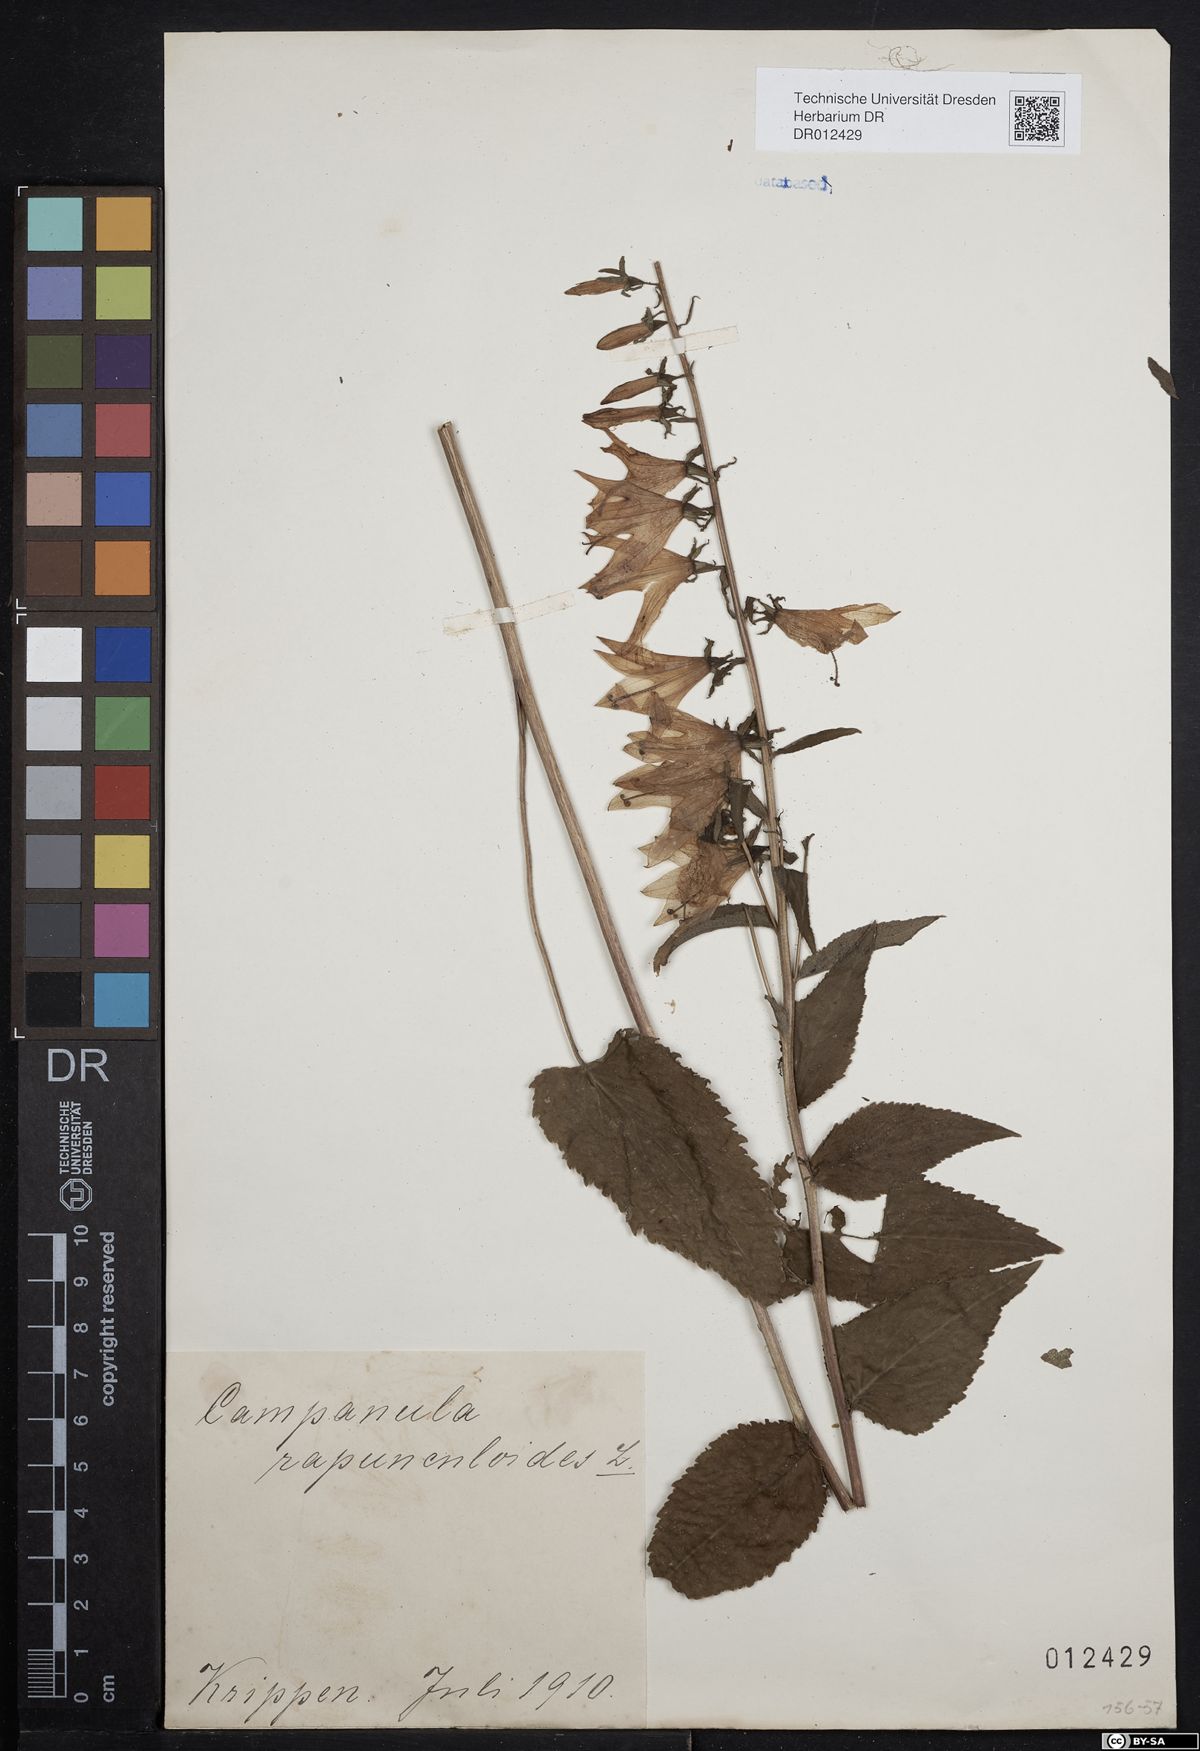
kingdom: Plantae
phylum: Tracheophyta
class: Magnoliopsida
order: Asterales
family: Campanulaceae
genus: Campanula
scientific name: Campanula rapunculoides
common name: Creeping bellflower
